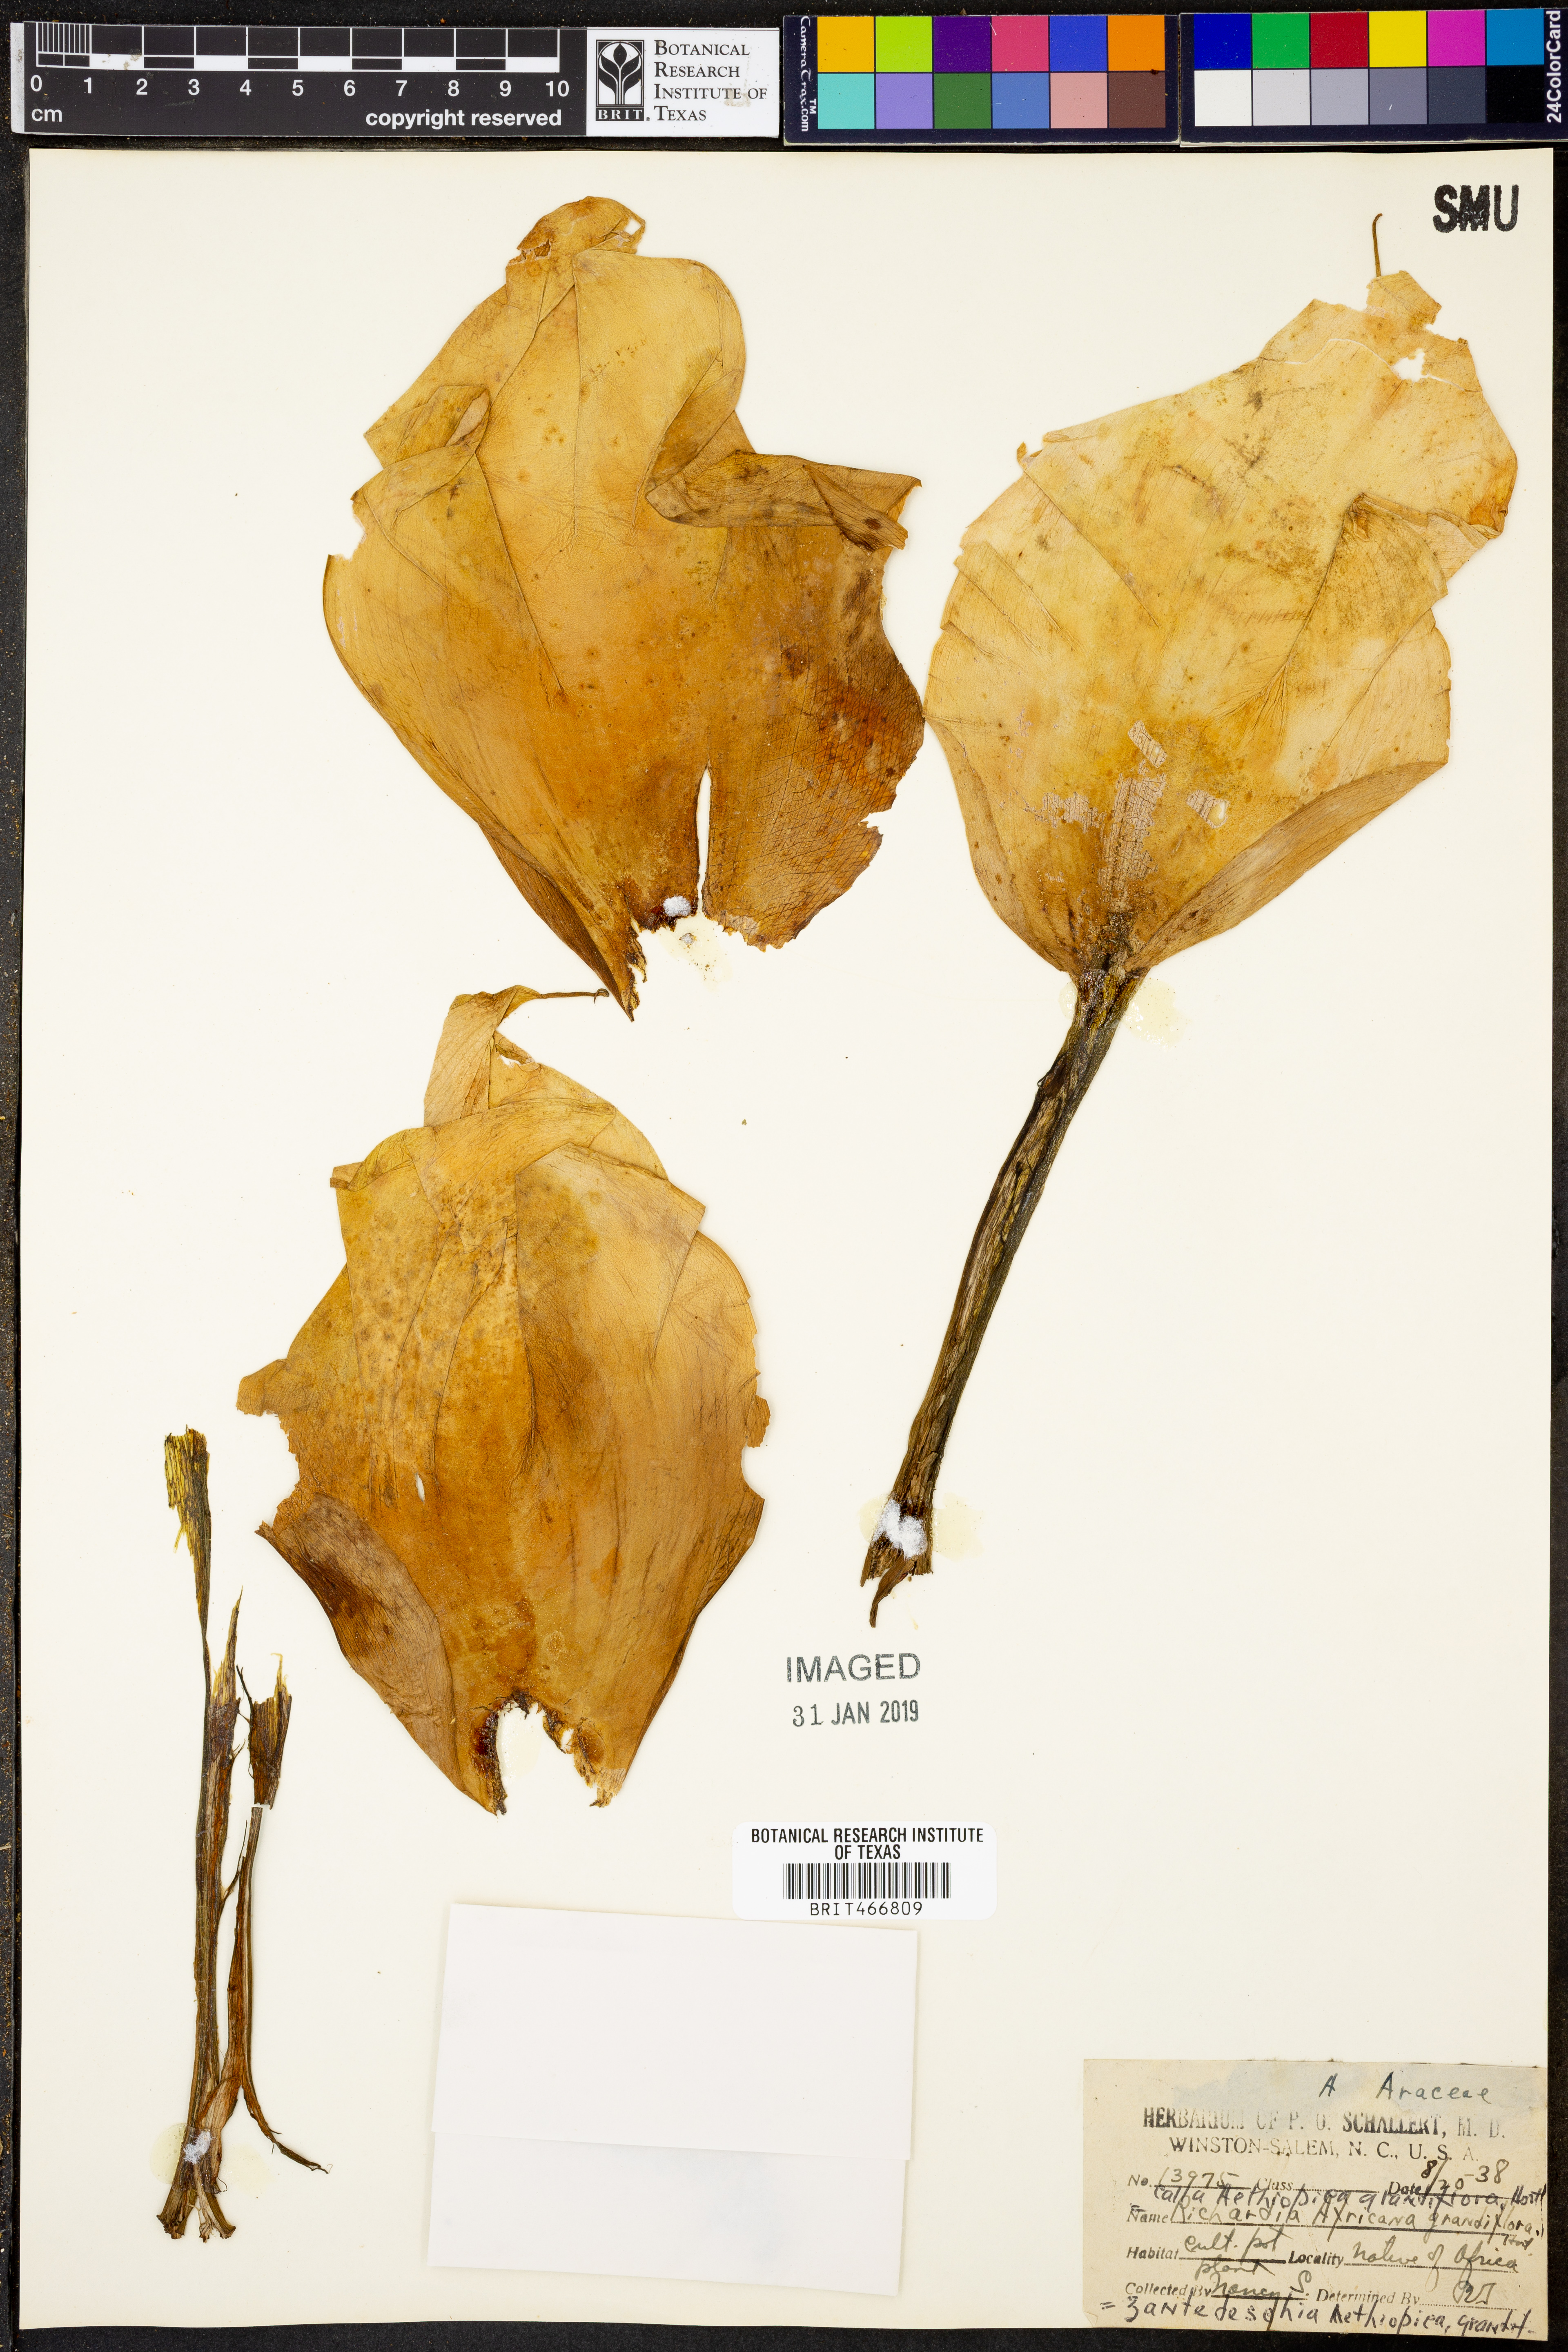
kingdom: Plantae
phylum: Tracheophyta
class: Liliopsida
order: Alismatales
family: Araceae
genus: Zantedeschia
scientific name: Zantedeschia aethiopica
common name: Altar-lily
